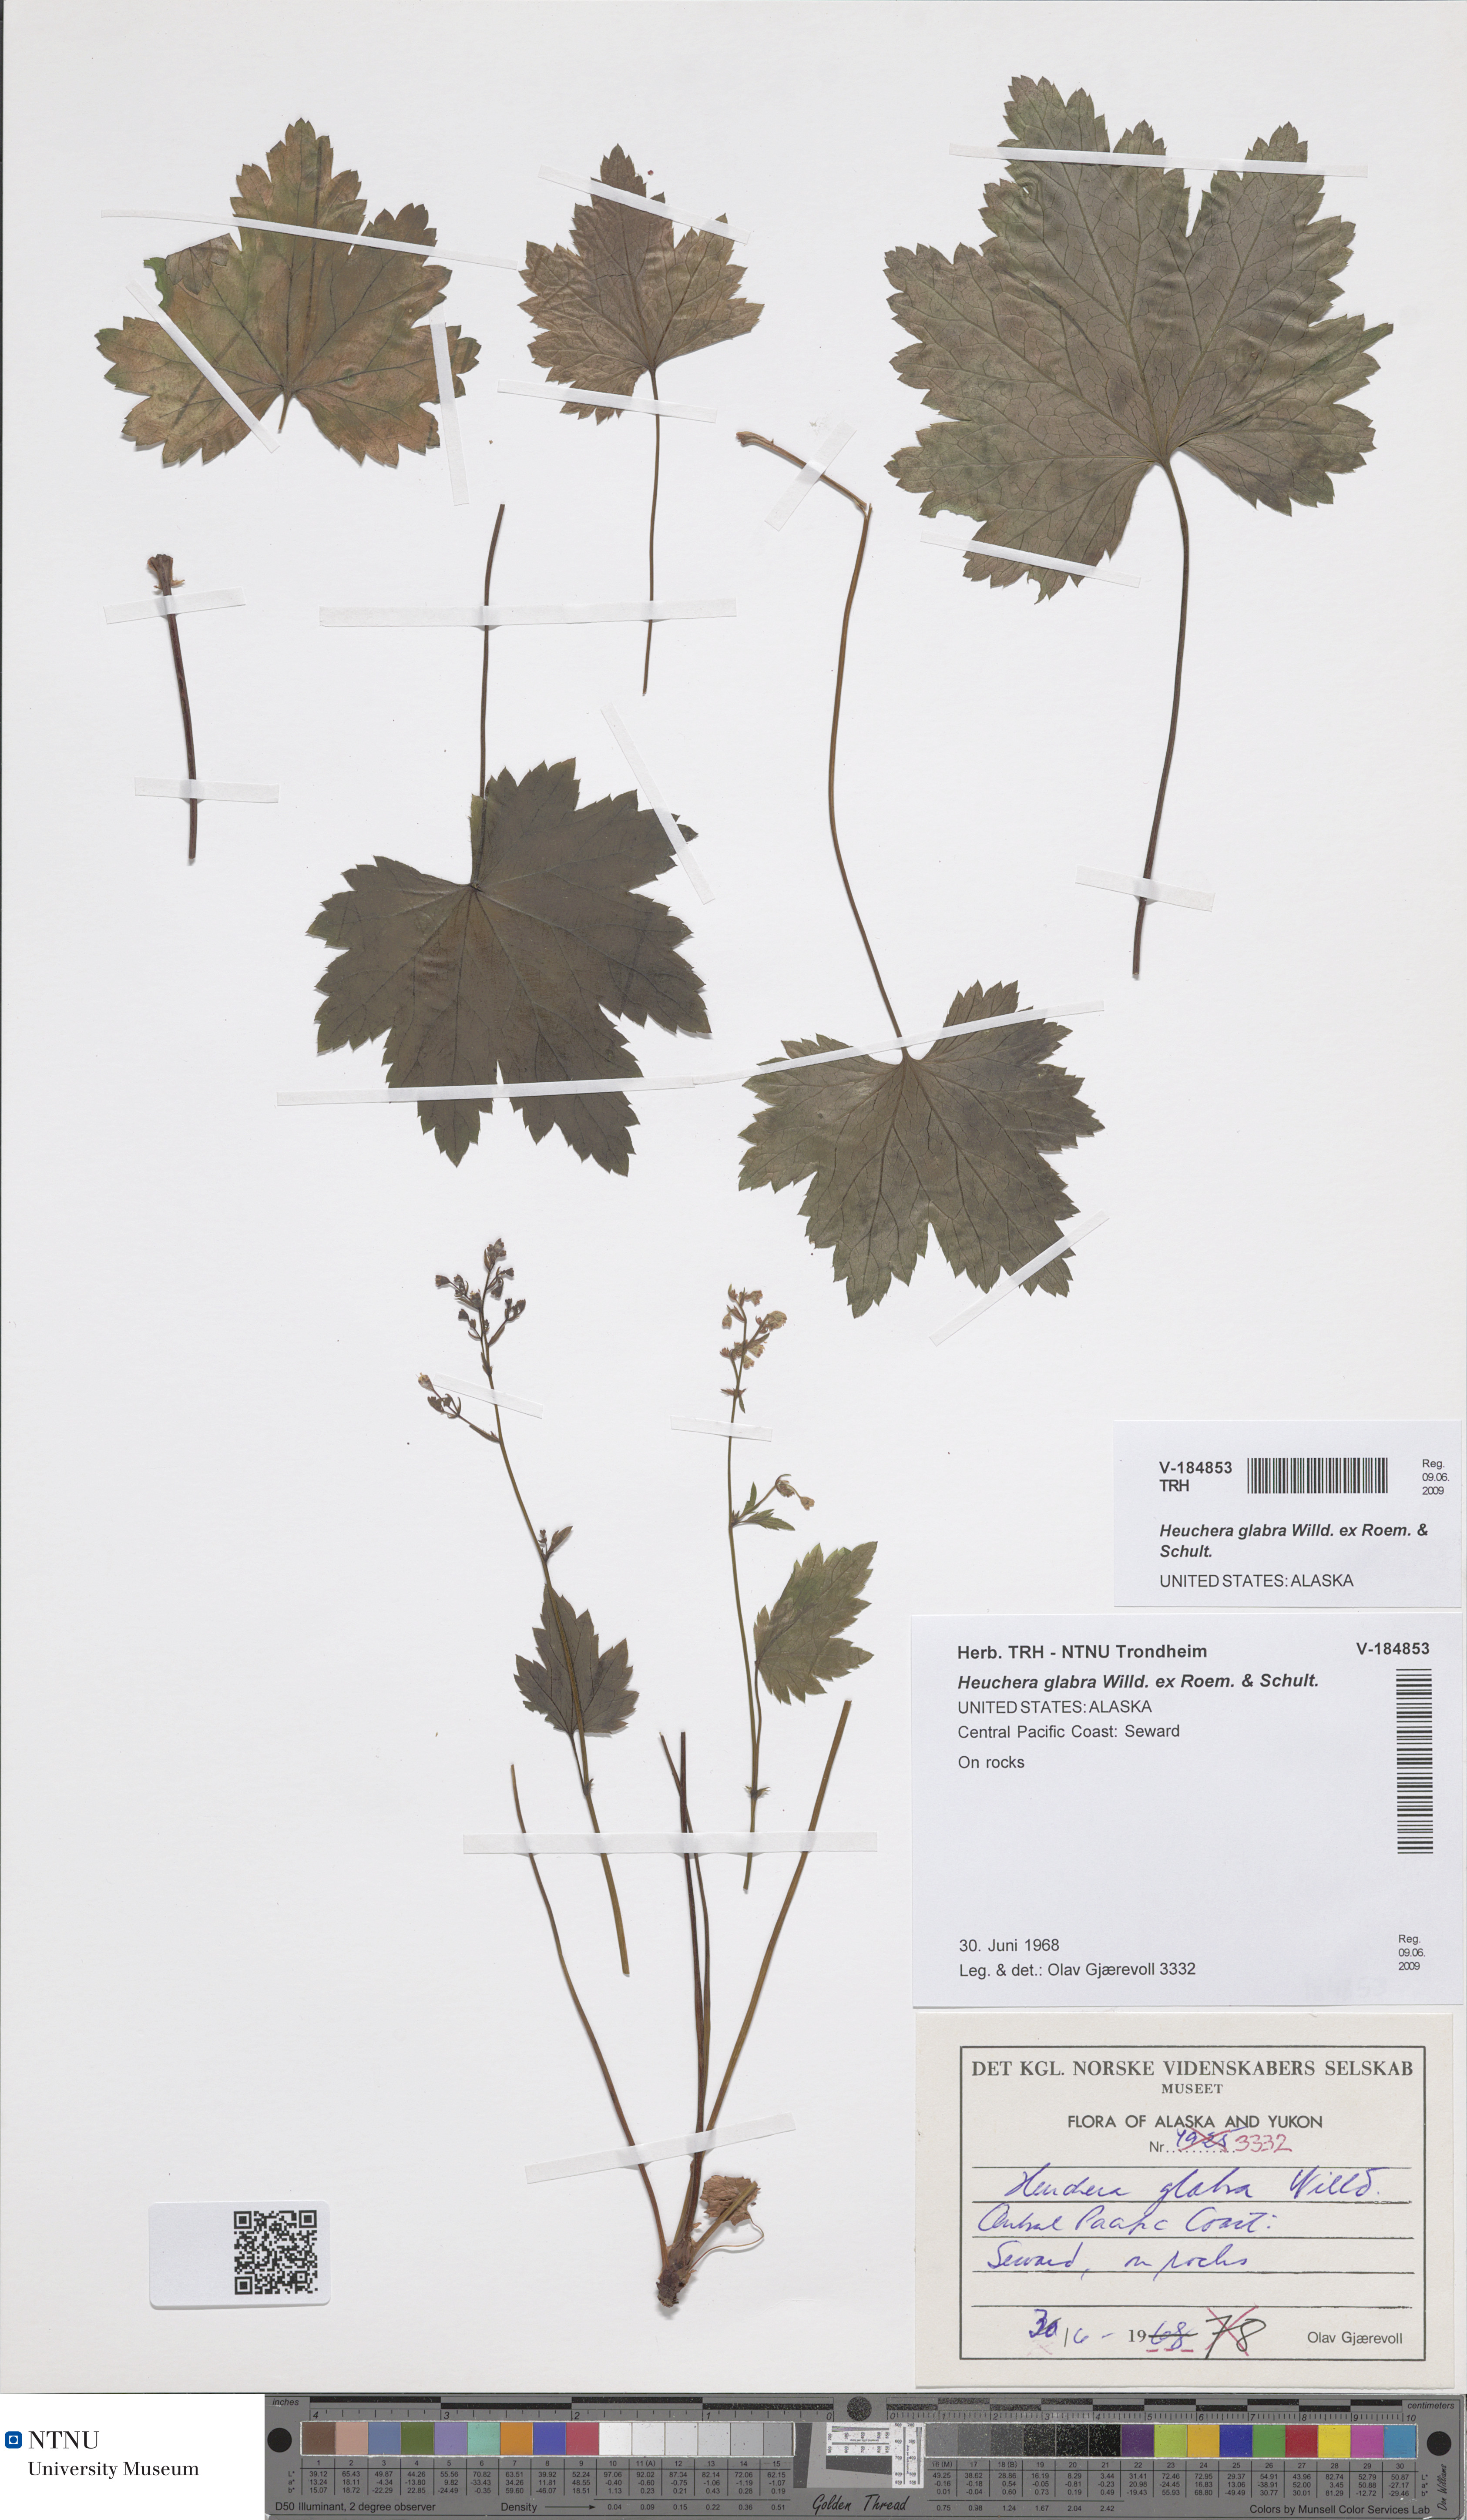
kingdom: Plantae
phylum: Tracheophyta
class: Magnoliopsida
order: Saxifragales
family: Saxifragaceae
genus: Heuchera
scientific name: Heuchera glabra
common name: Alpine alumroot
